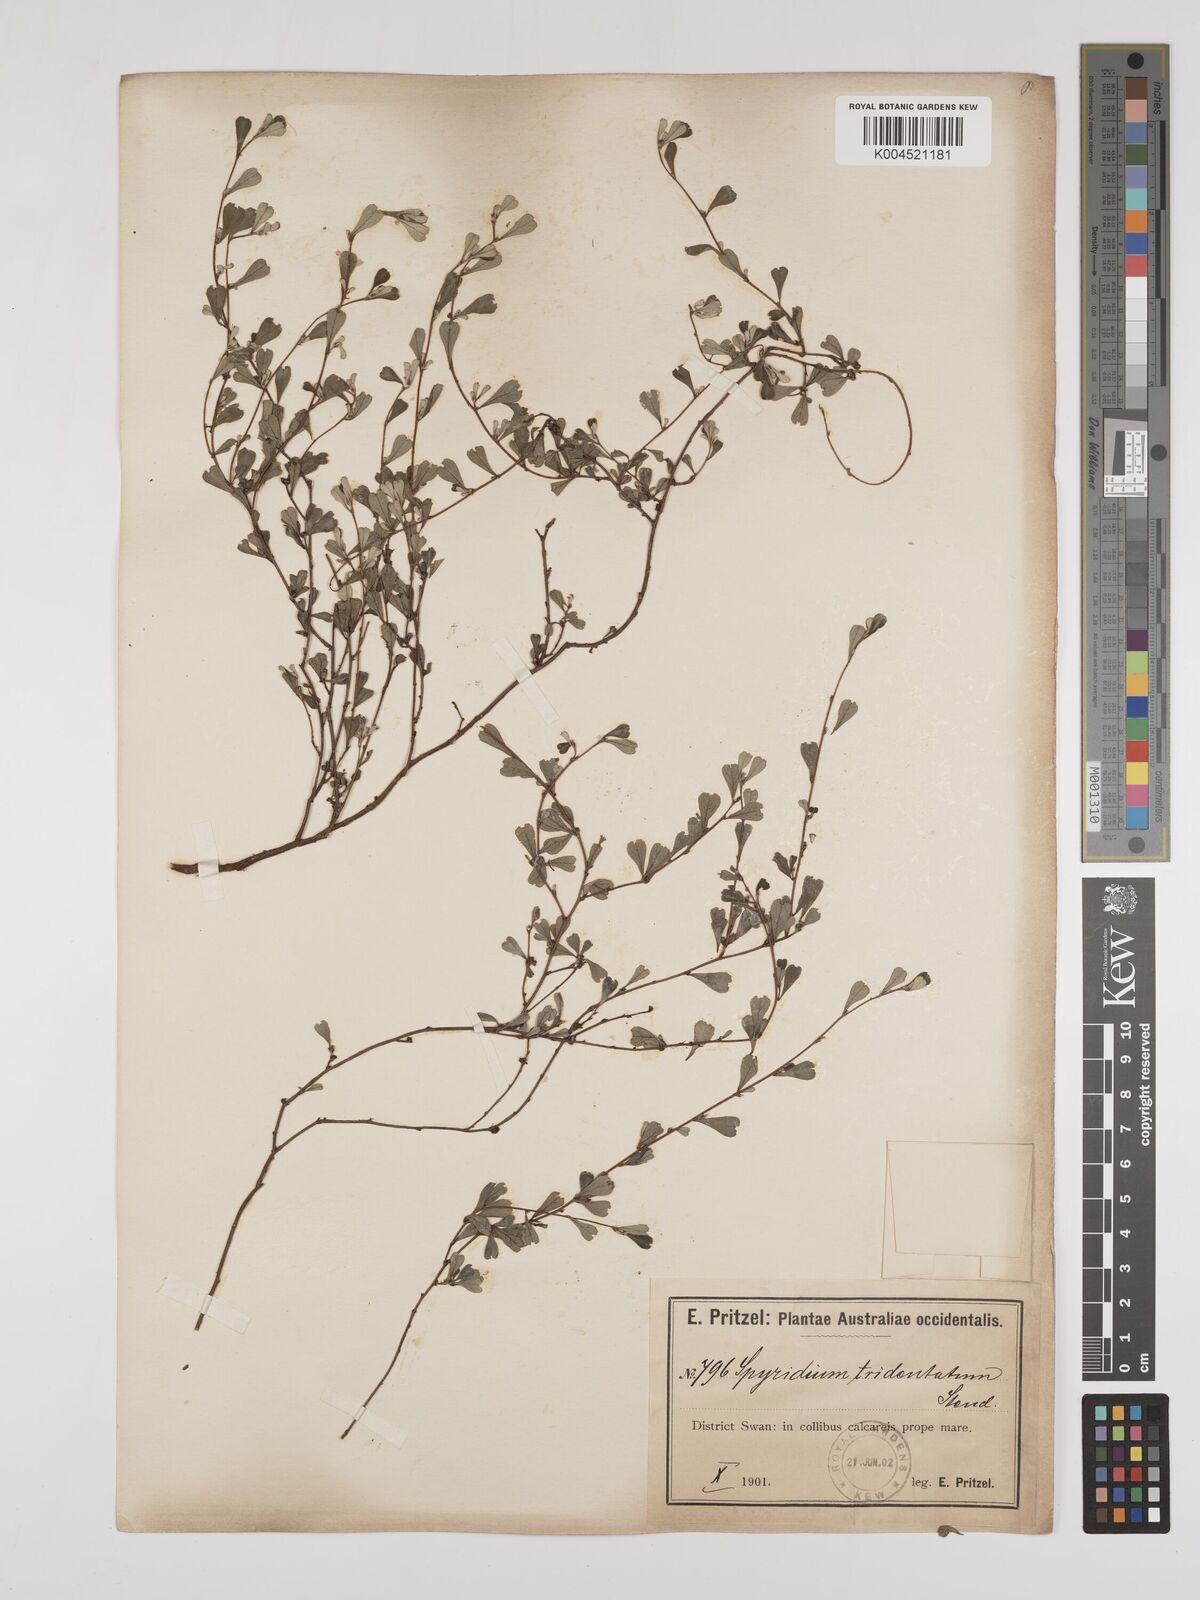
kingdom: Plantae
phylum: Tracheophyta
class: Magnoliopsida
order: Rosales
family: Rhamnaceae
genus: Stenanthemum
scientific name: Stenanthemum tridentatum
